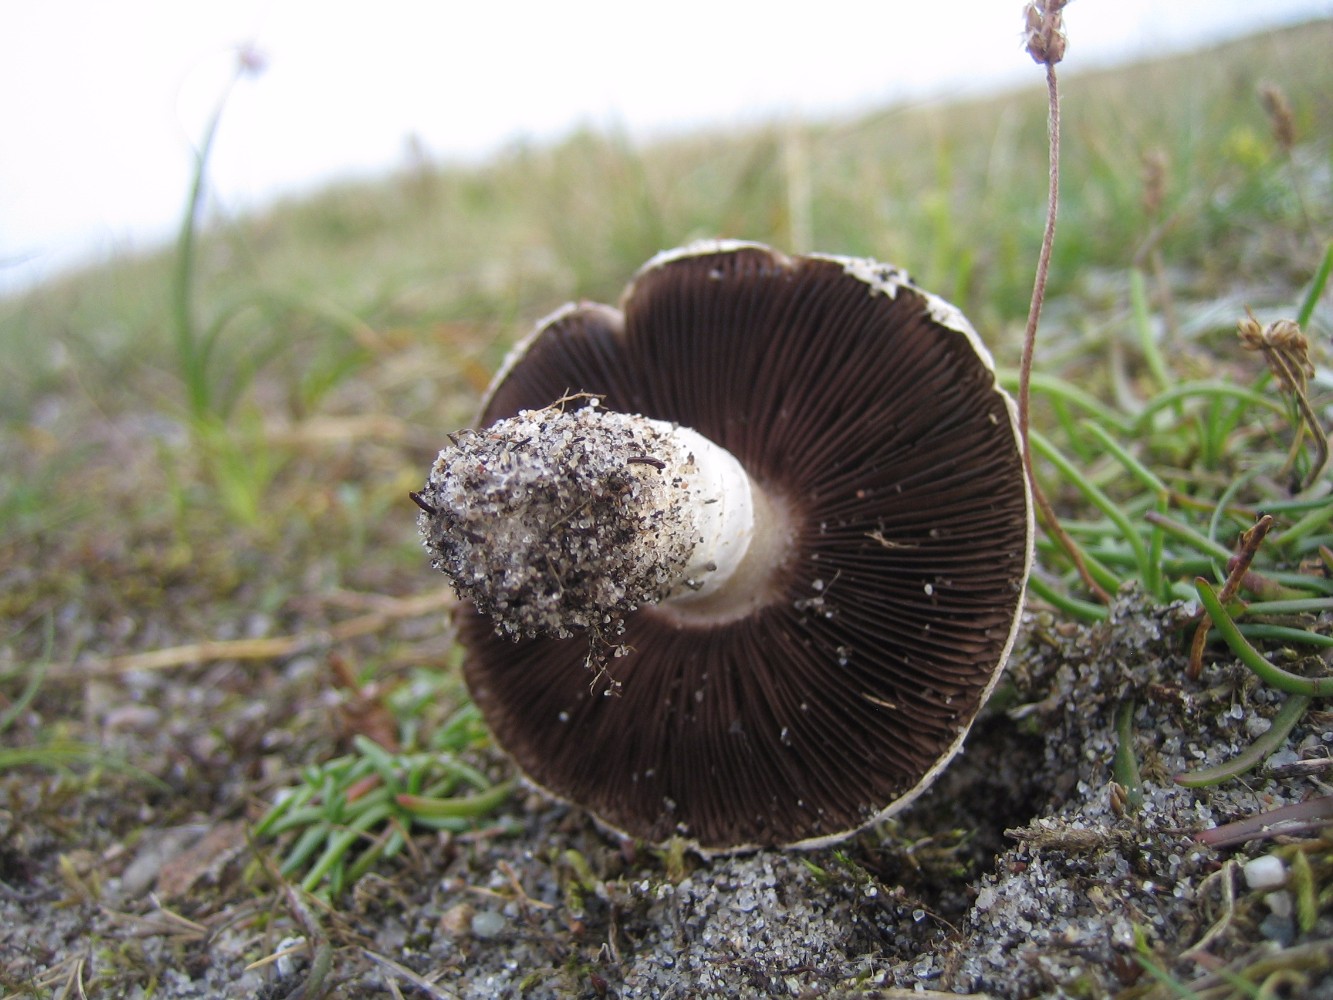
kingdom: Fungi
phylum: Basidiomycota
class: Agaricomycetes
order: Agaricales
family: Agaricaceae
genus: Agaricus
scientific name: Agaricus
